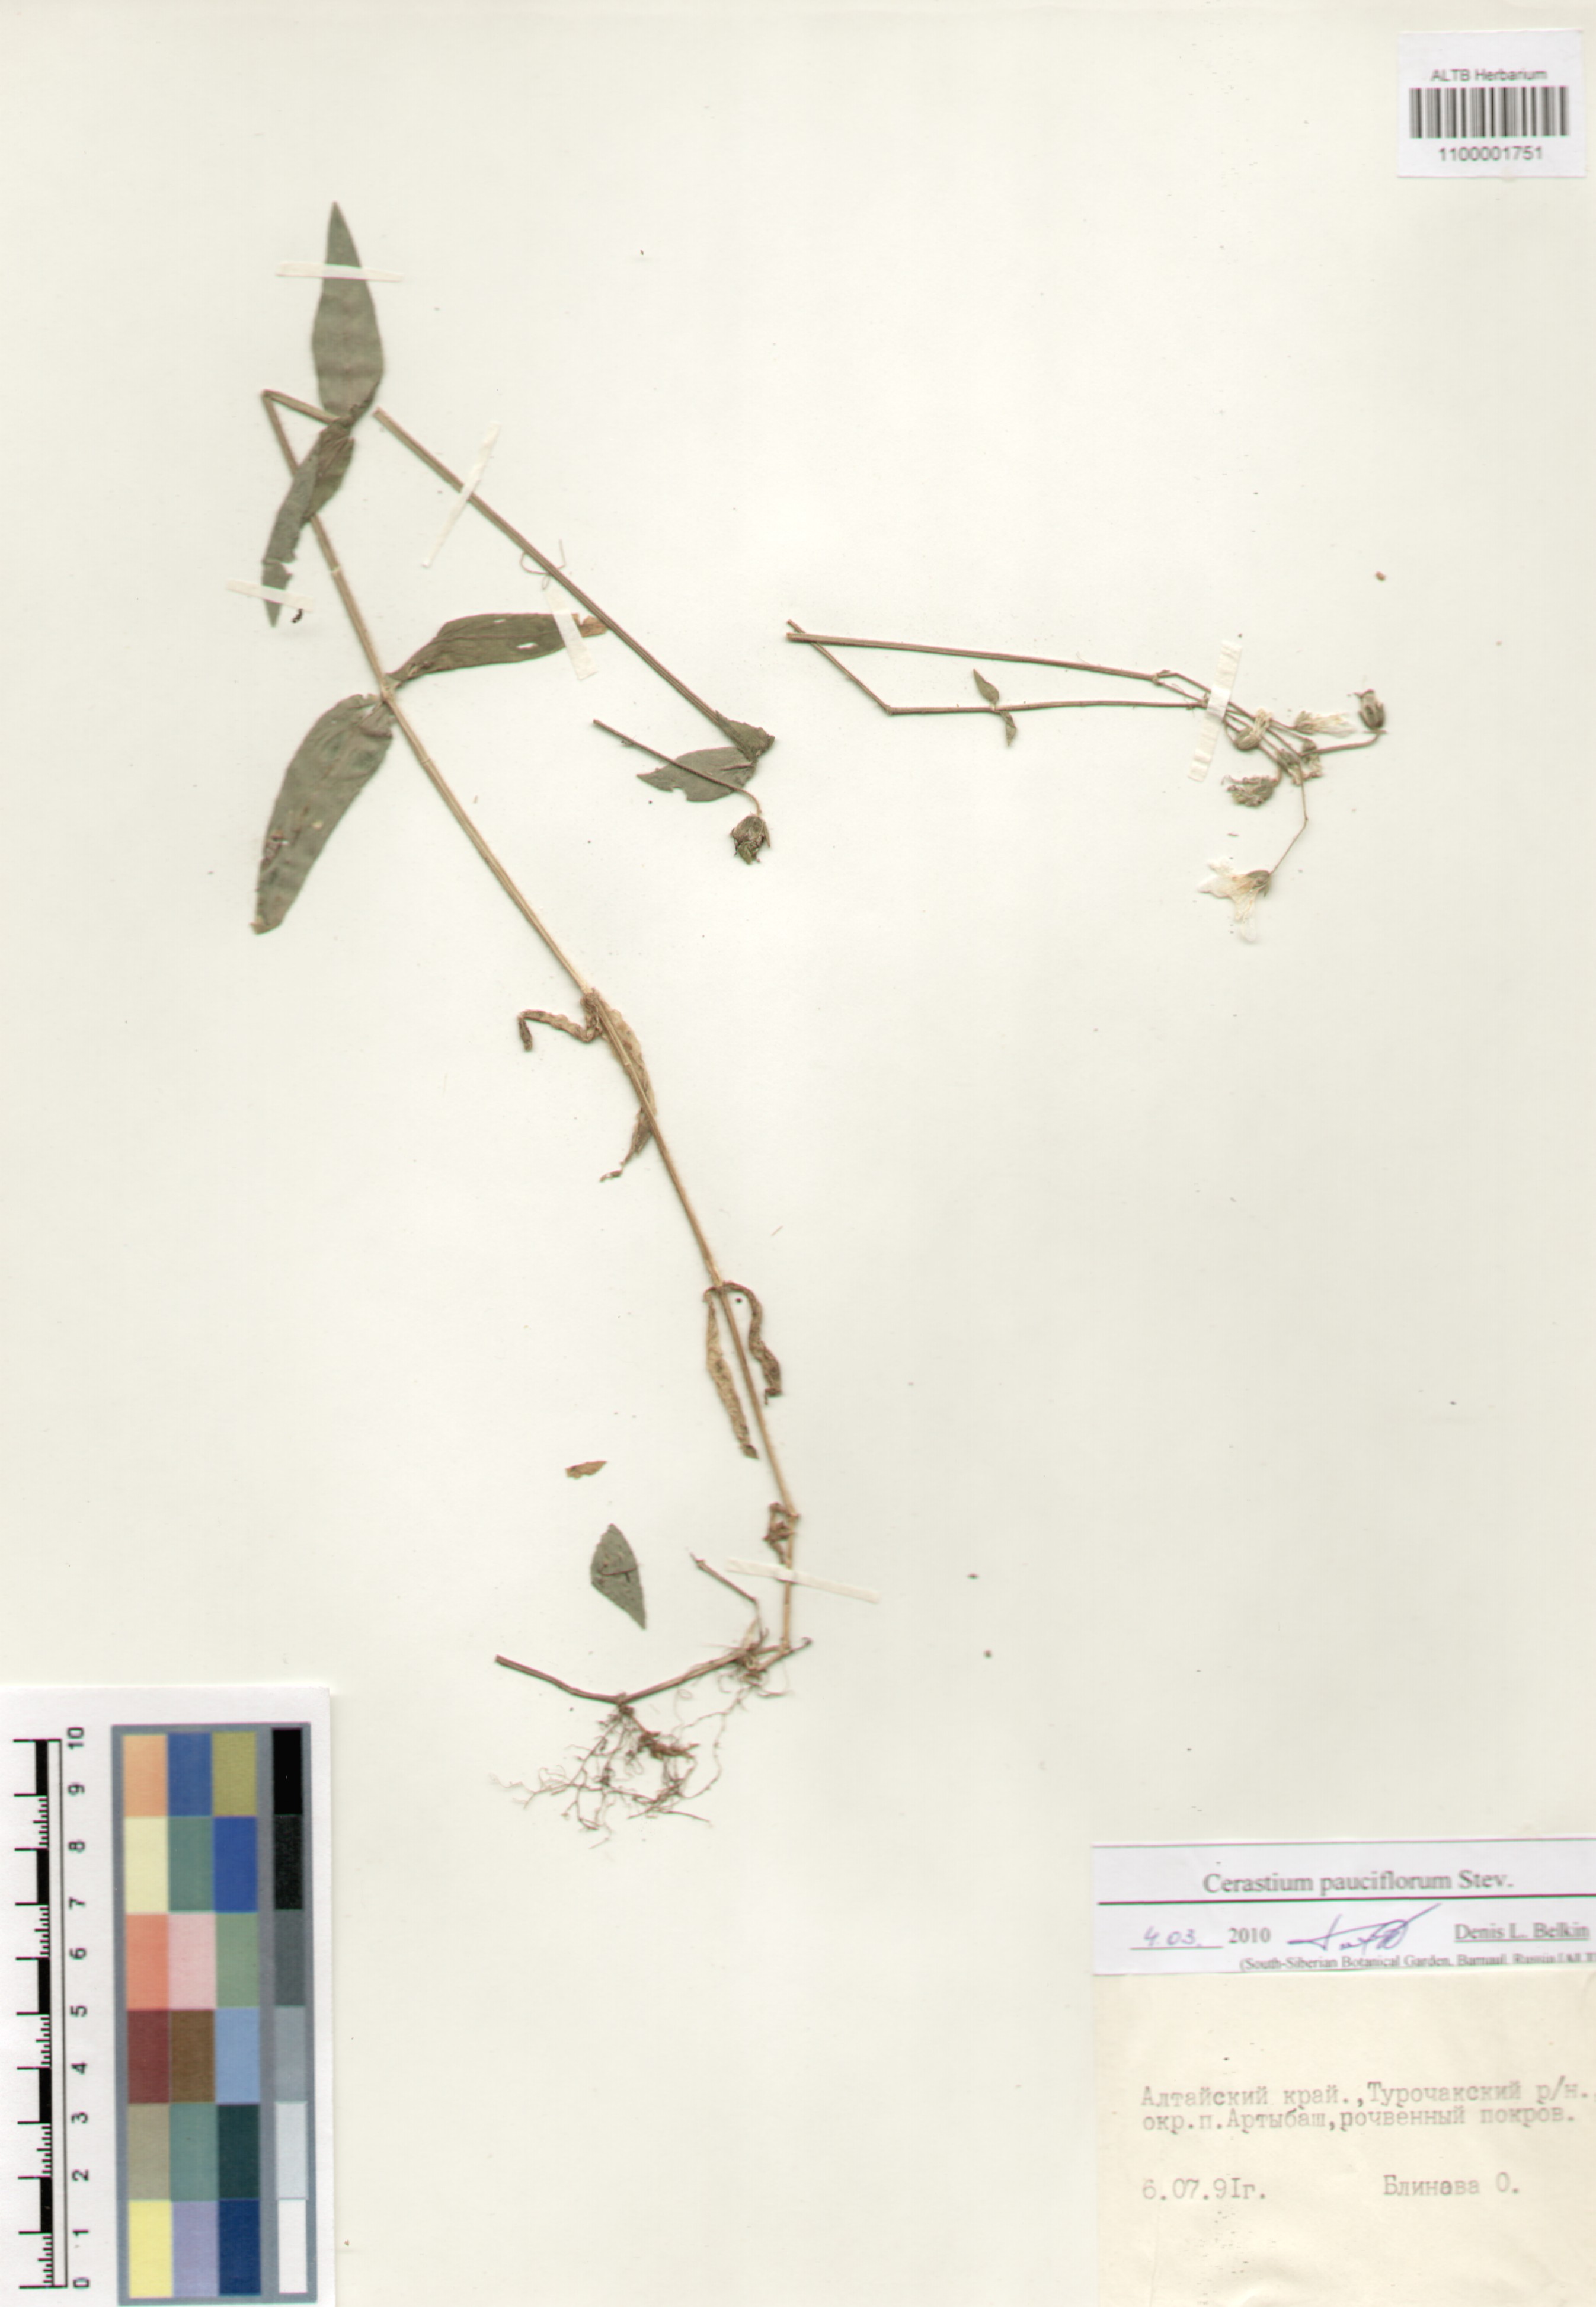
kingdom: Plantae
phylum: Tracheophyta
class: Magnoliopsida
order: Caryophyllales
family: Caryophyllaceae
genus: Cerastium
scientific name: Cerastium pauciflorum
